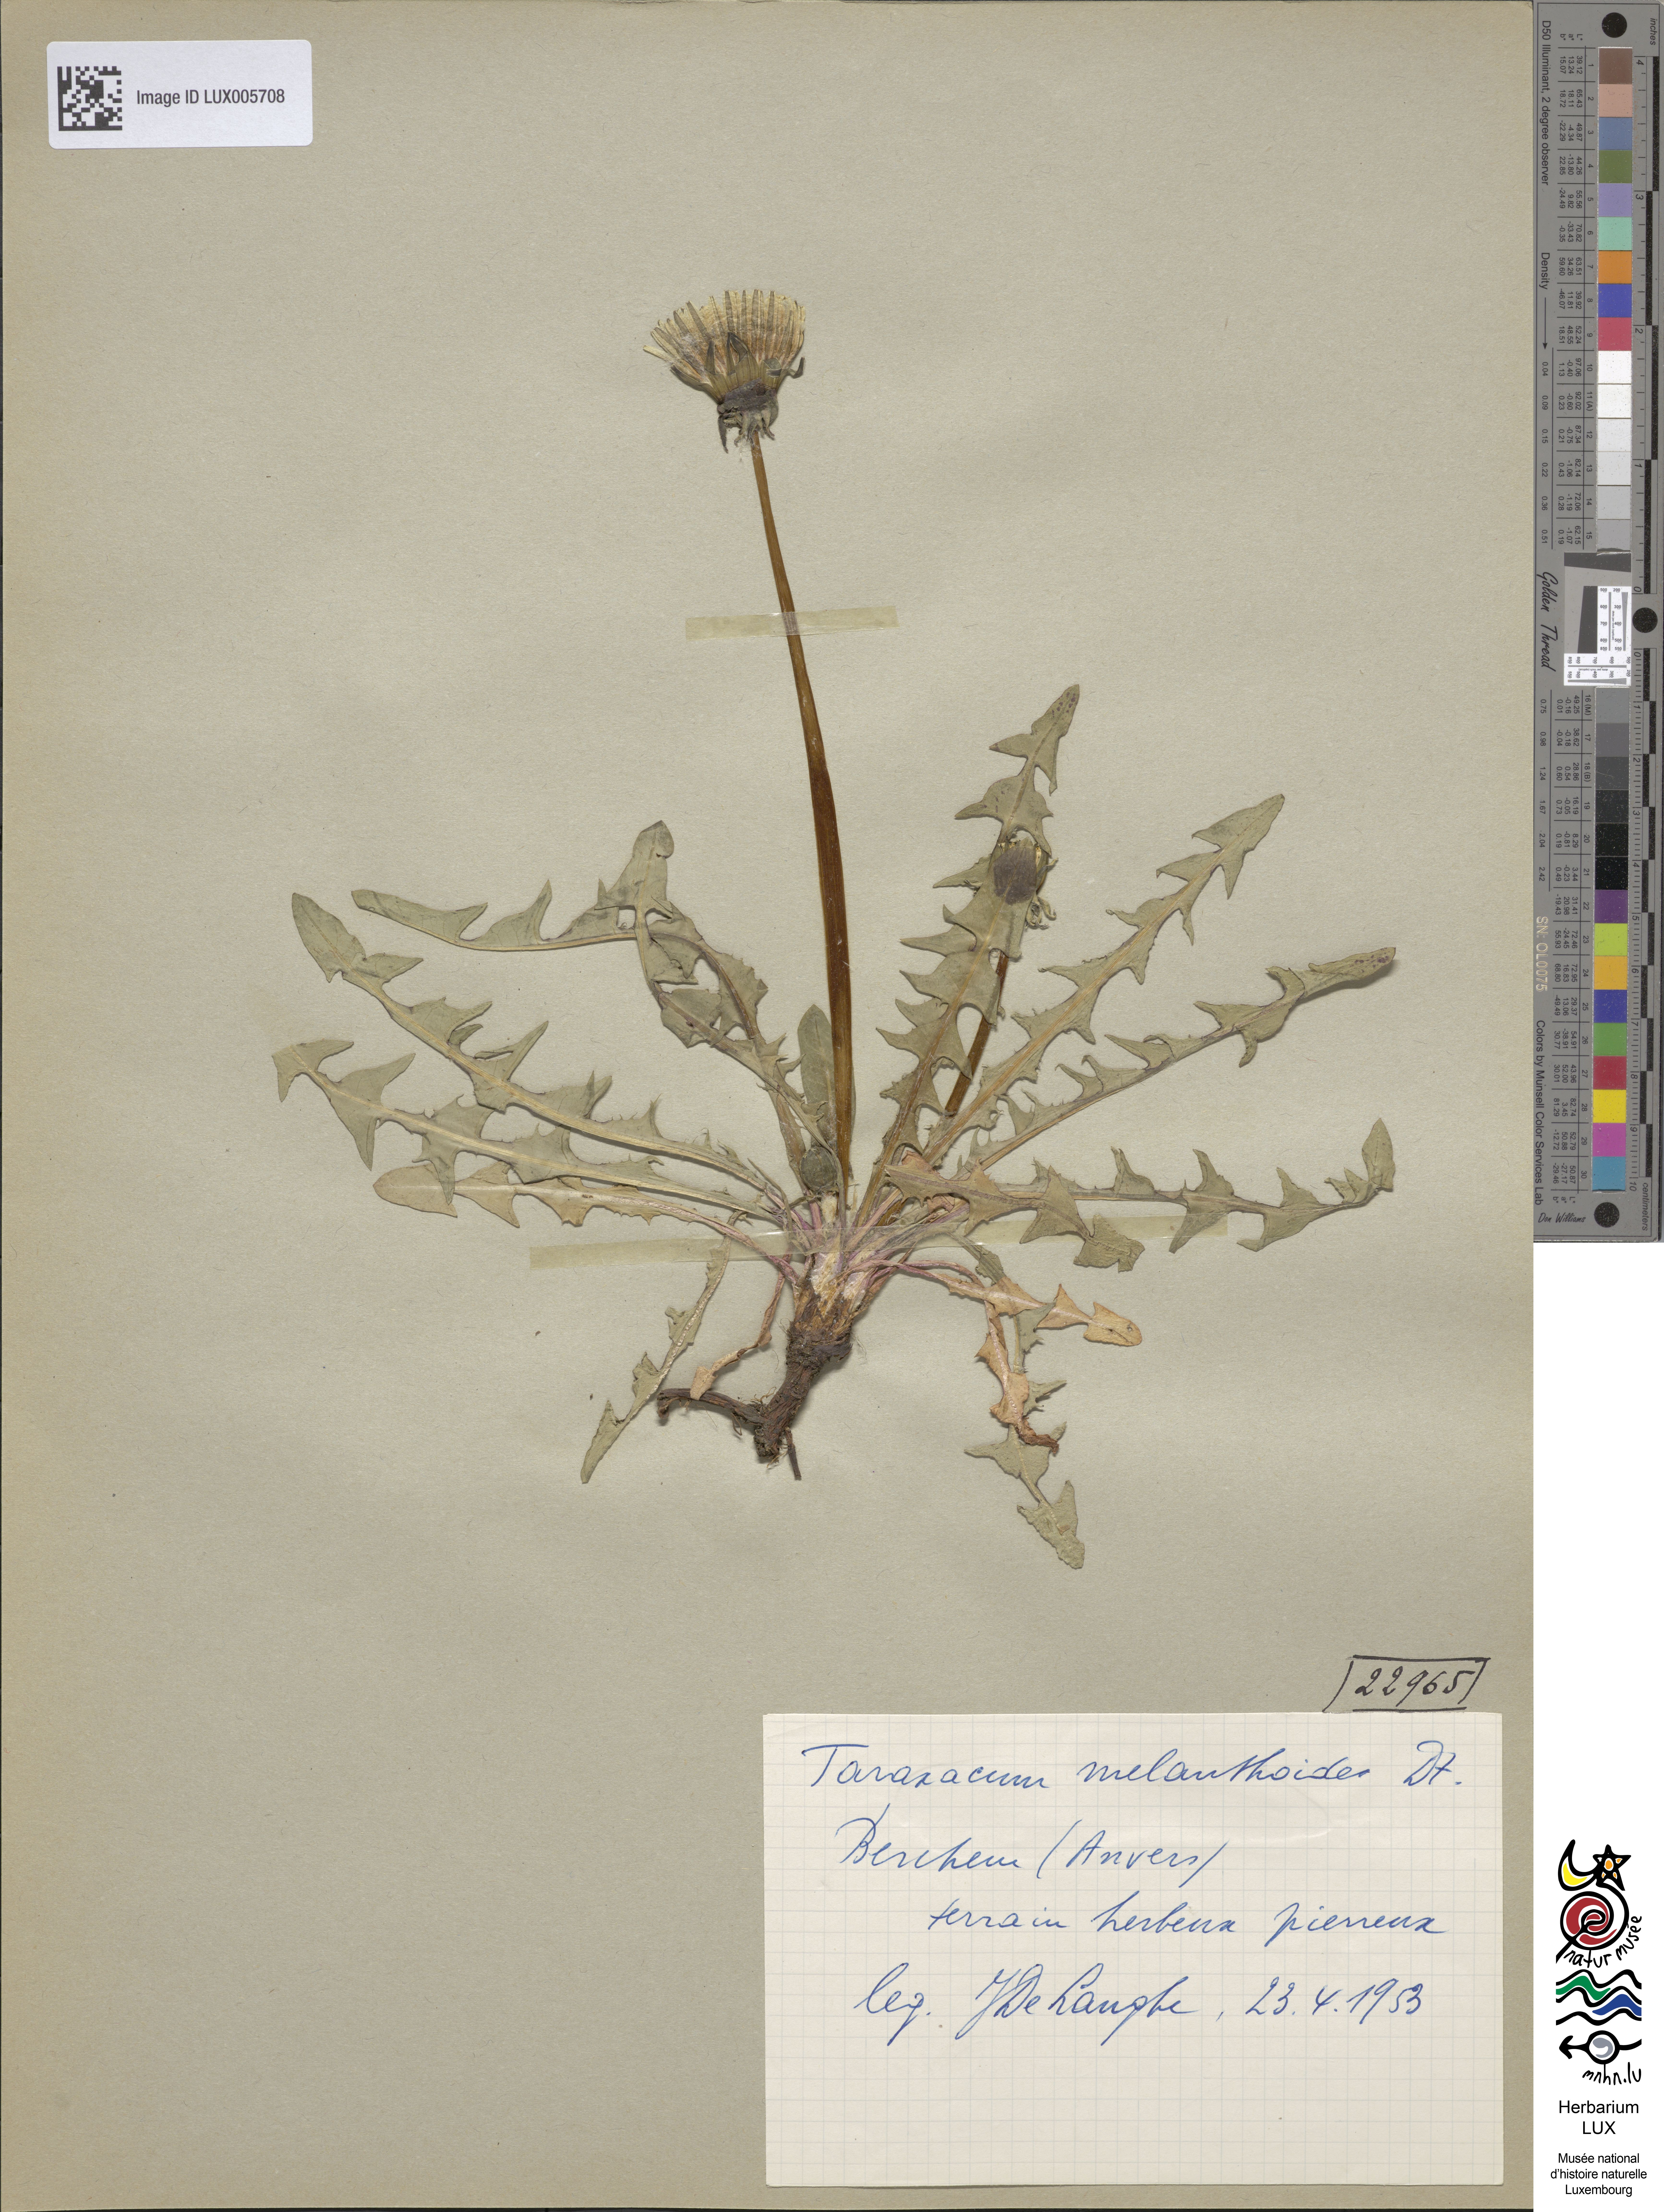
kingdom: Plantae
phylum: Tracheophyta
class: Magnoliopsida
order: Asterales
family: Asteraceae
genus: Taraxacum
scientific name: Taraxacum melanthoides
